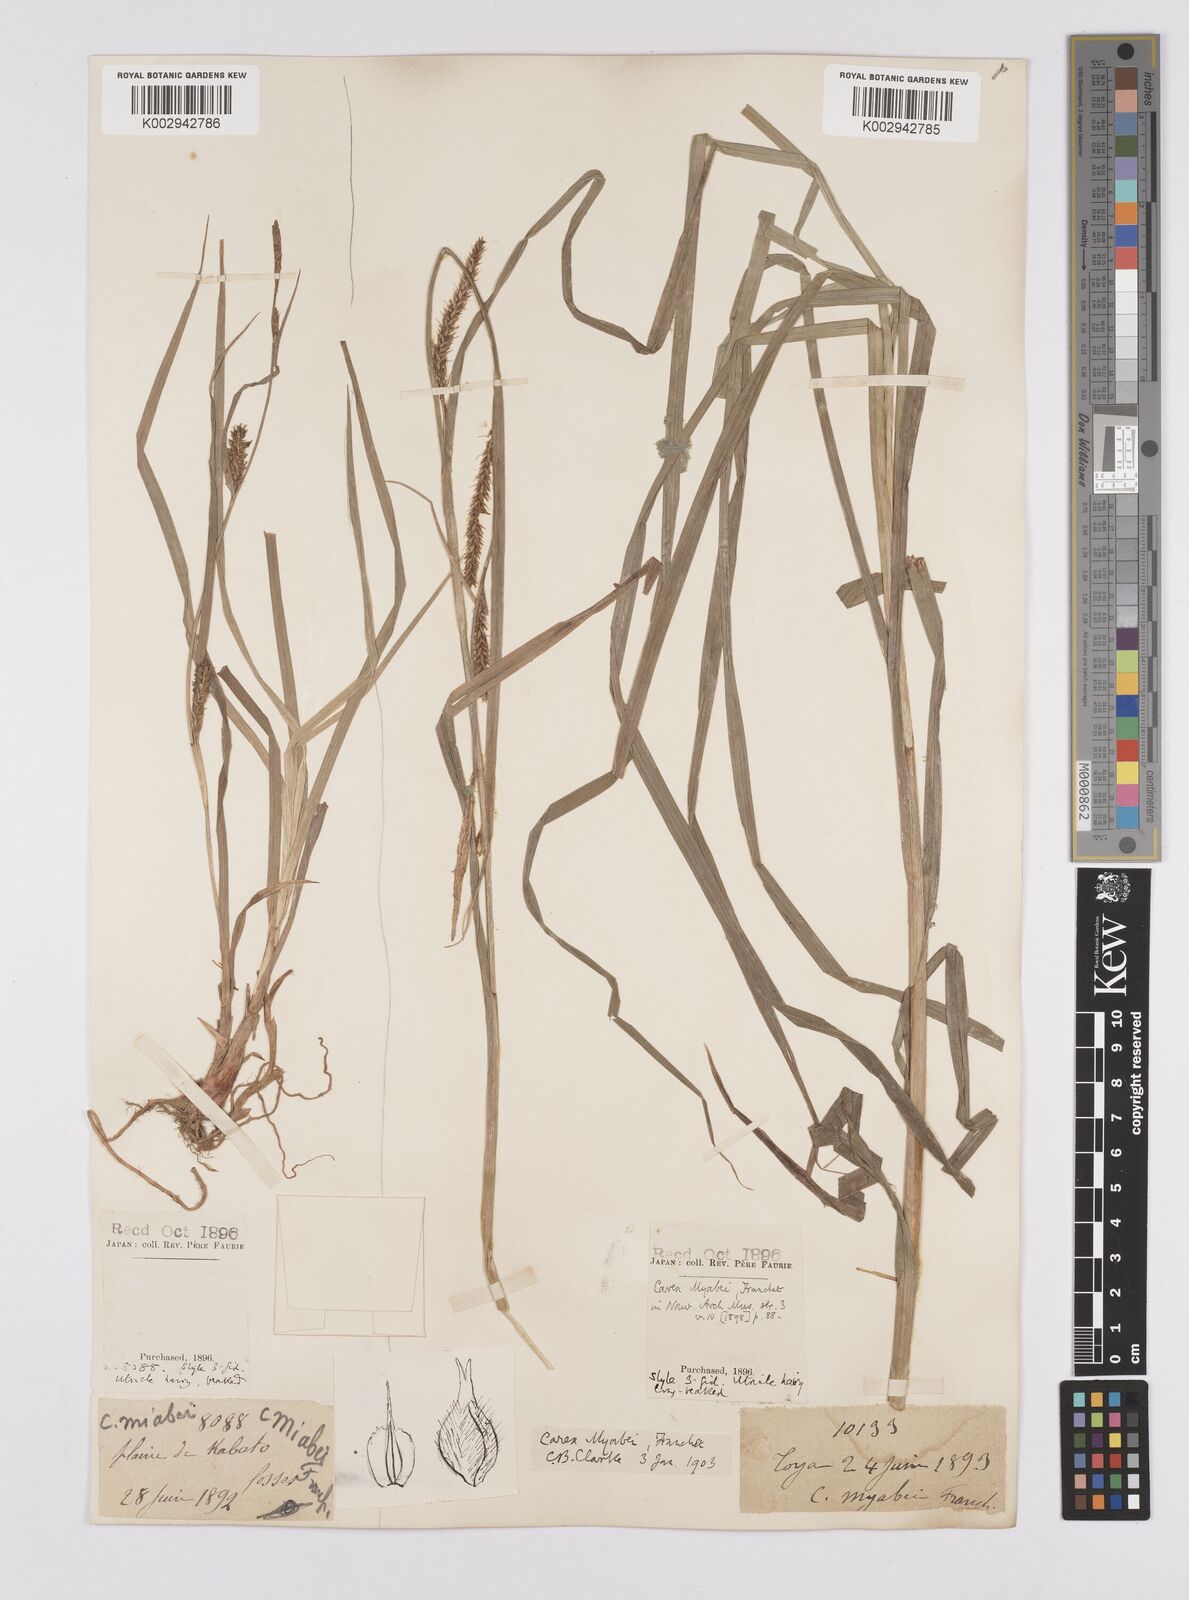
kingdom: Plantae
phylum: Tracheophyta
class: Liliopsida
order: Poales
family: Cyperaceae
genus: Carex
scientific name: Carex fedia
